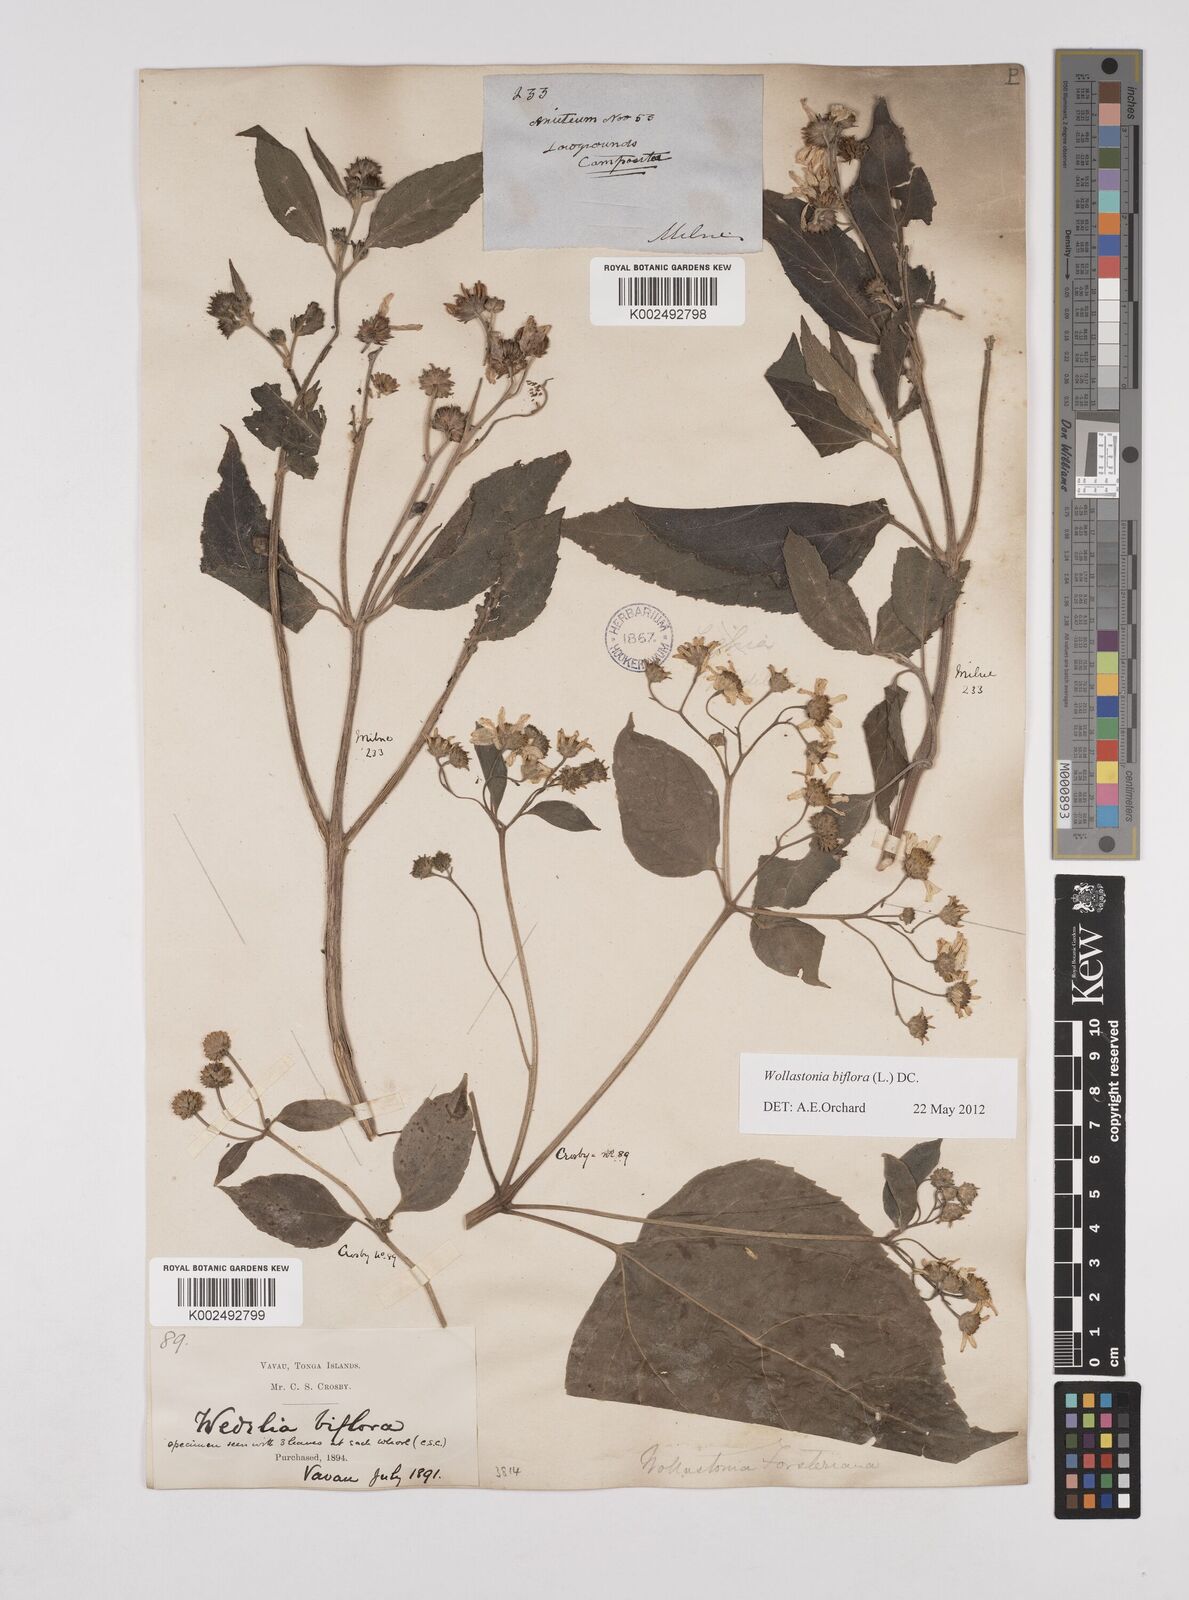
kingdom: Plantae
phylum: Tracheophyta
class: Magnoliopsida
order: Asterales
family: Asteraceae
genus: Wollastonia
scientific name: Wollastonia biflora
